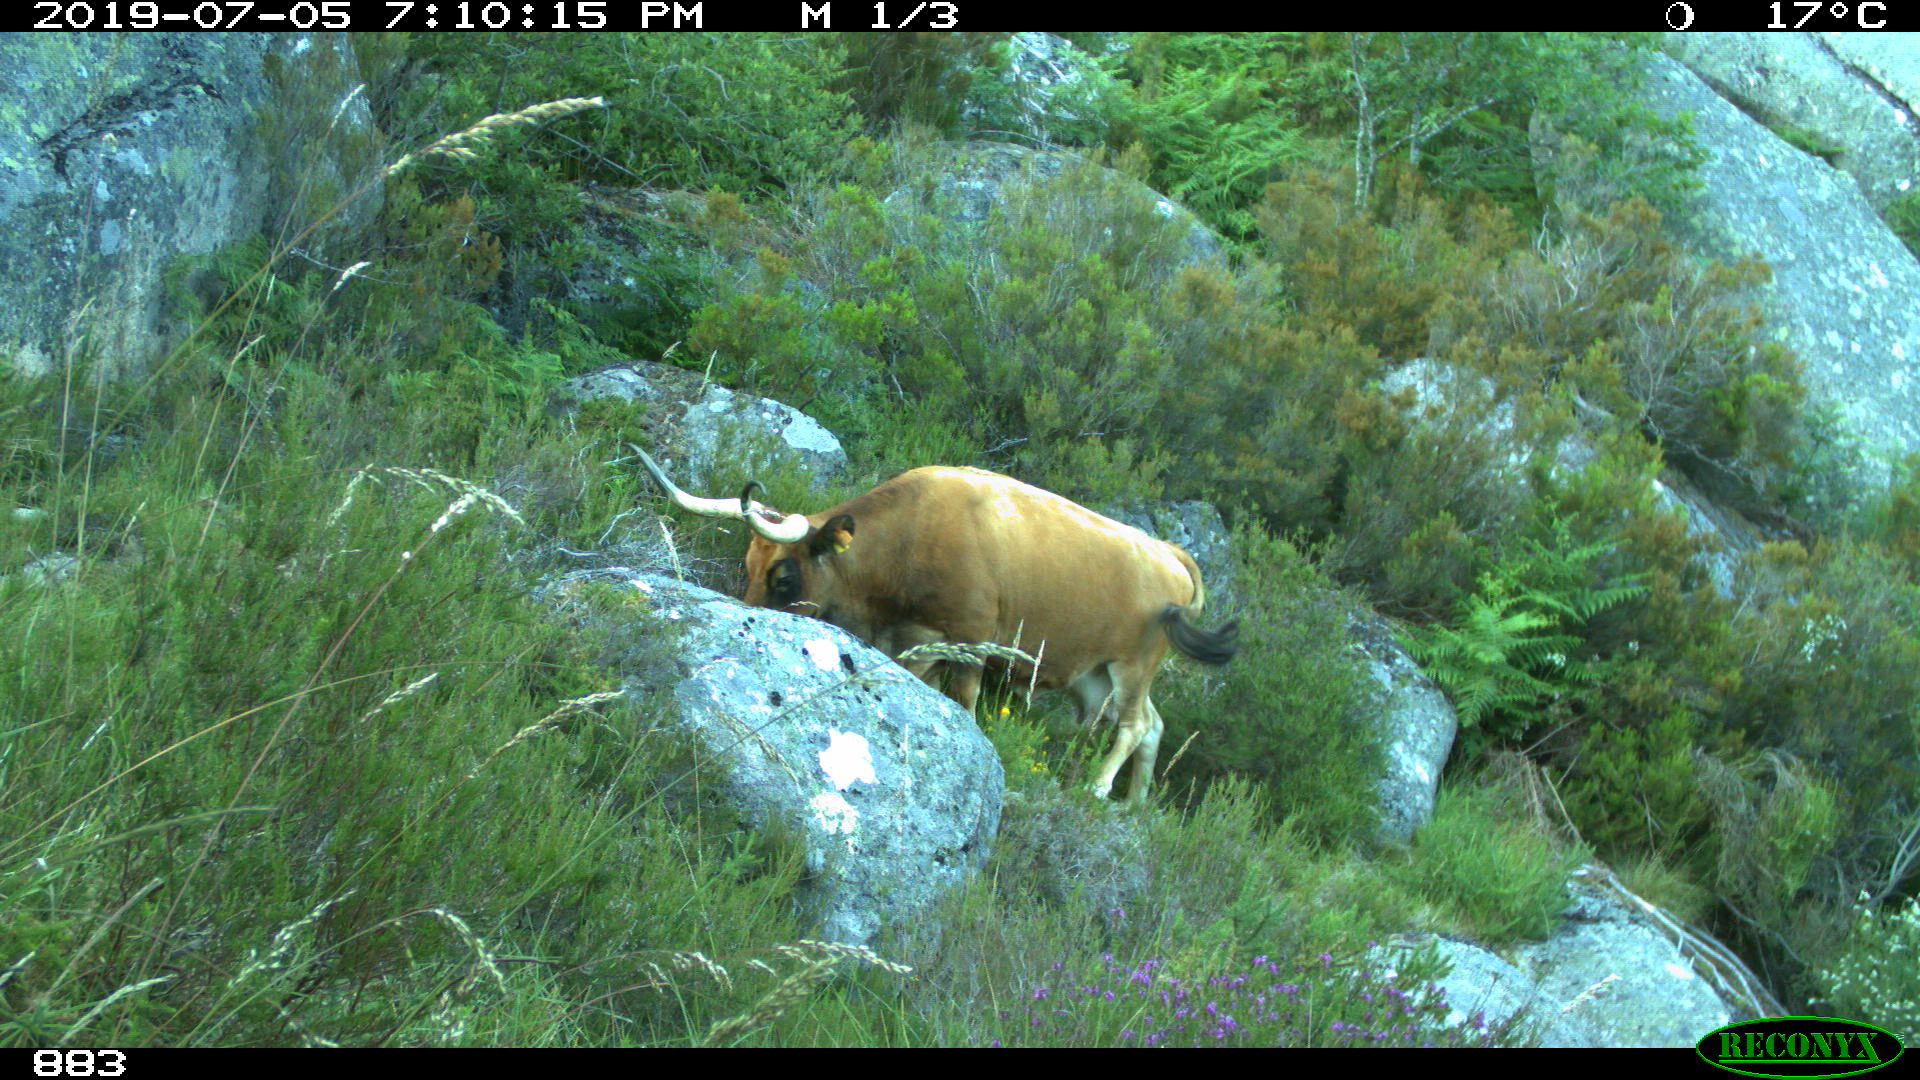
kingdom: Animalia
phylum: Chordata
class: Mammalia
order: Artiodactyla
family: Bovidae
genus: Bos
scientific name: Bos taurus
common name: Domesticated cattle
